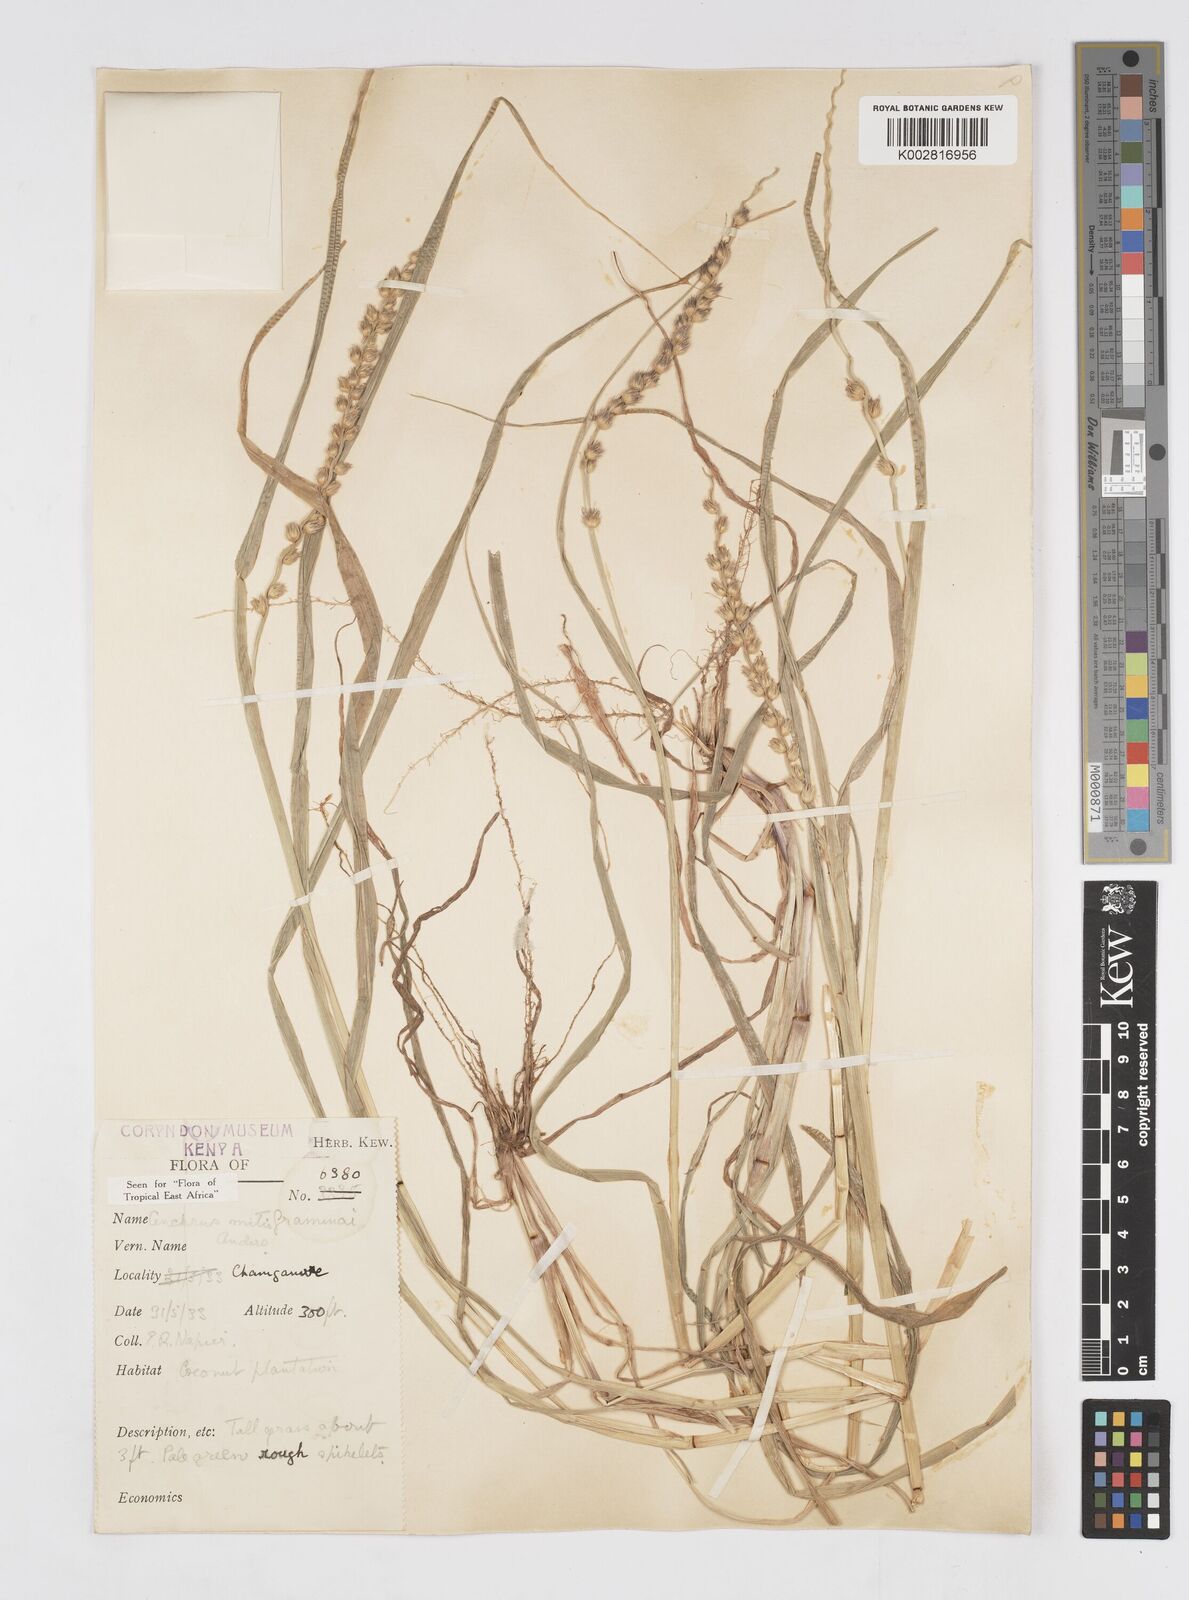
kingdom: Plantae
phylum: Tracheophyta
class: Liliopsida
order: Poales
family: Poaceae
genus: Cenchrus
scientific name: Cenchrus mitis
